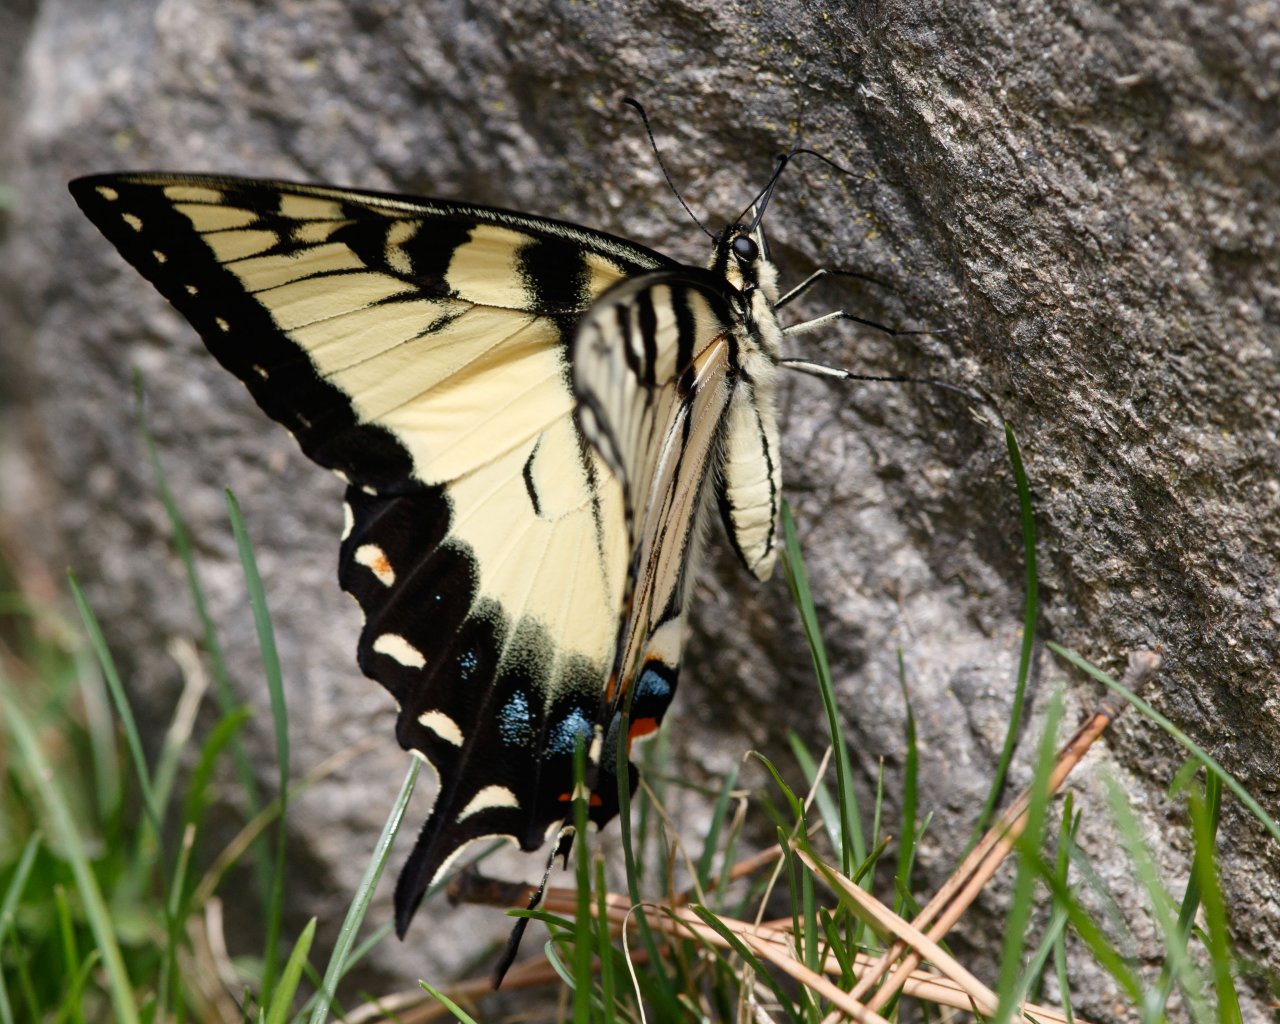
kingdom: Animalia
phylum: Arthropoda
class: Insecta
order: Lepidoptera
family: Papilionidae
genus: Pterourus
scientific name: Pterourus glaucus
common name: Eastern Tiger Swallowtail
